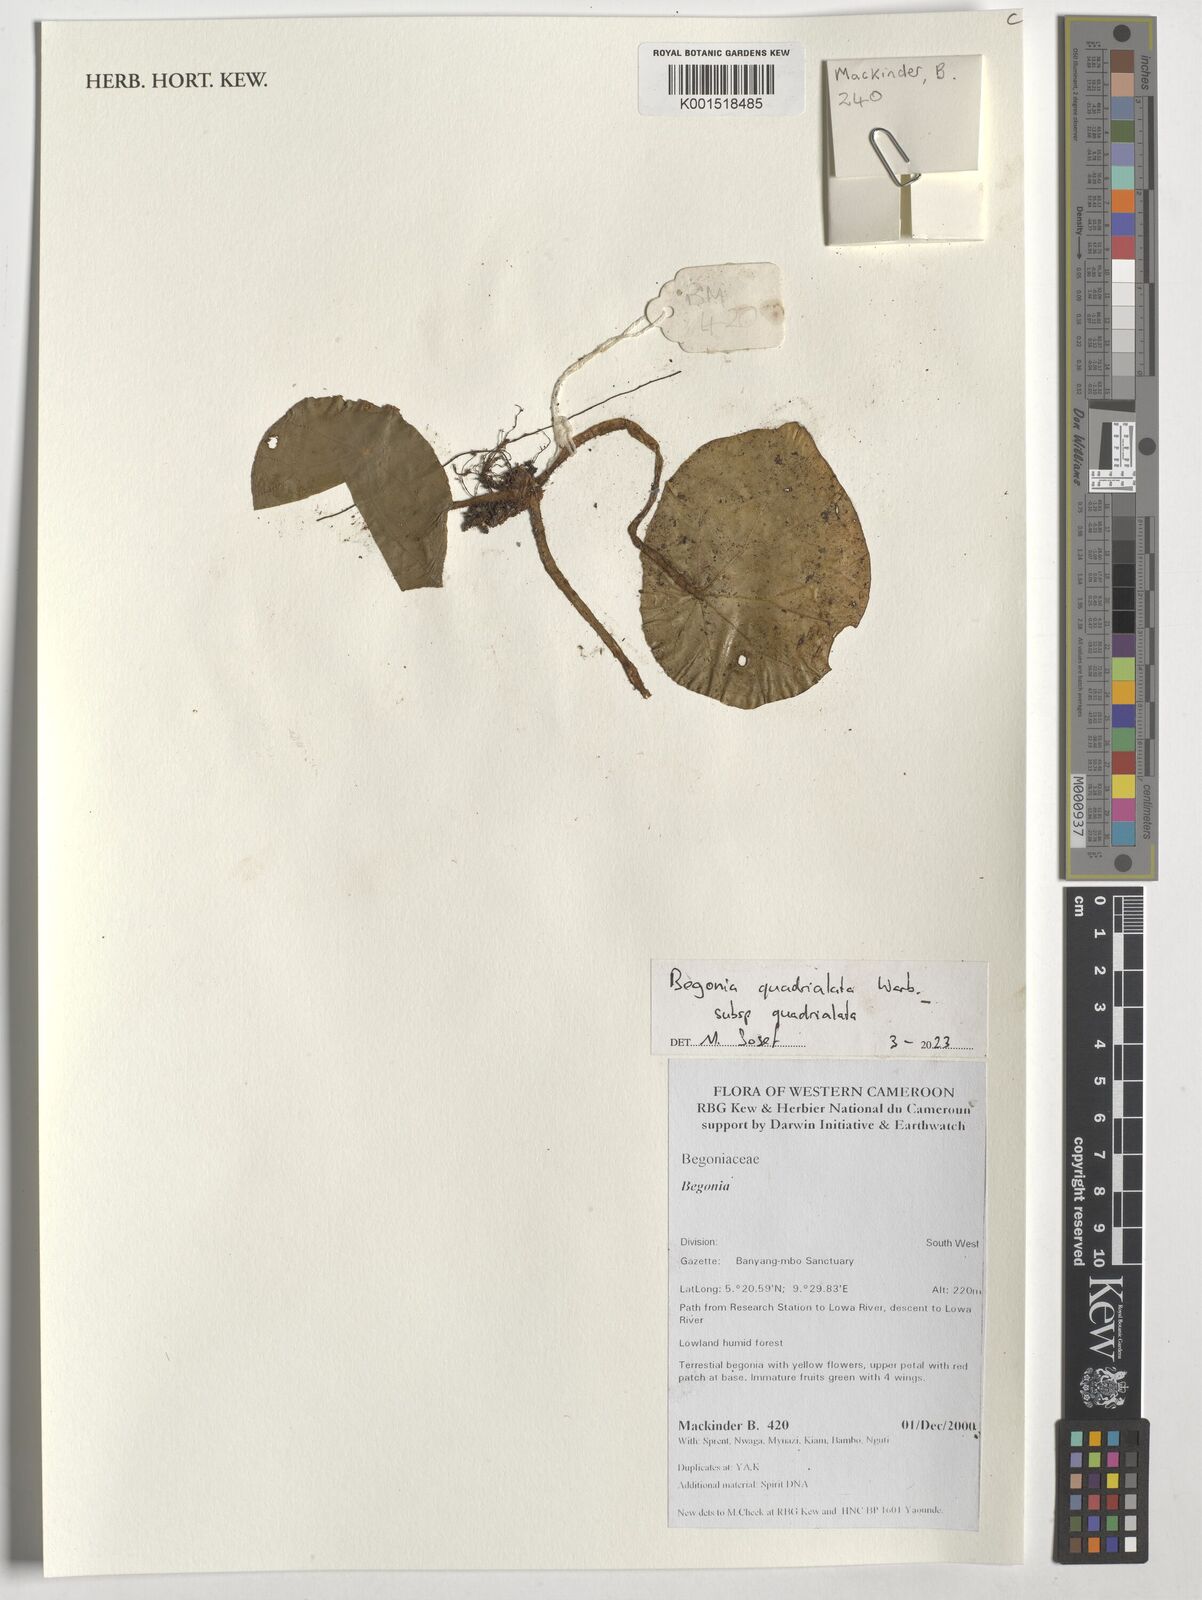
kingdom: Plantae
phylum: Tracheophyta
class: Magnoliopsida
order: Cucurbitales
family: Begoniaceae
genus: Begonia
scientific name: Begonia quadrialata
